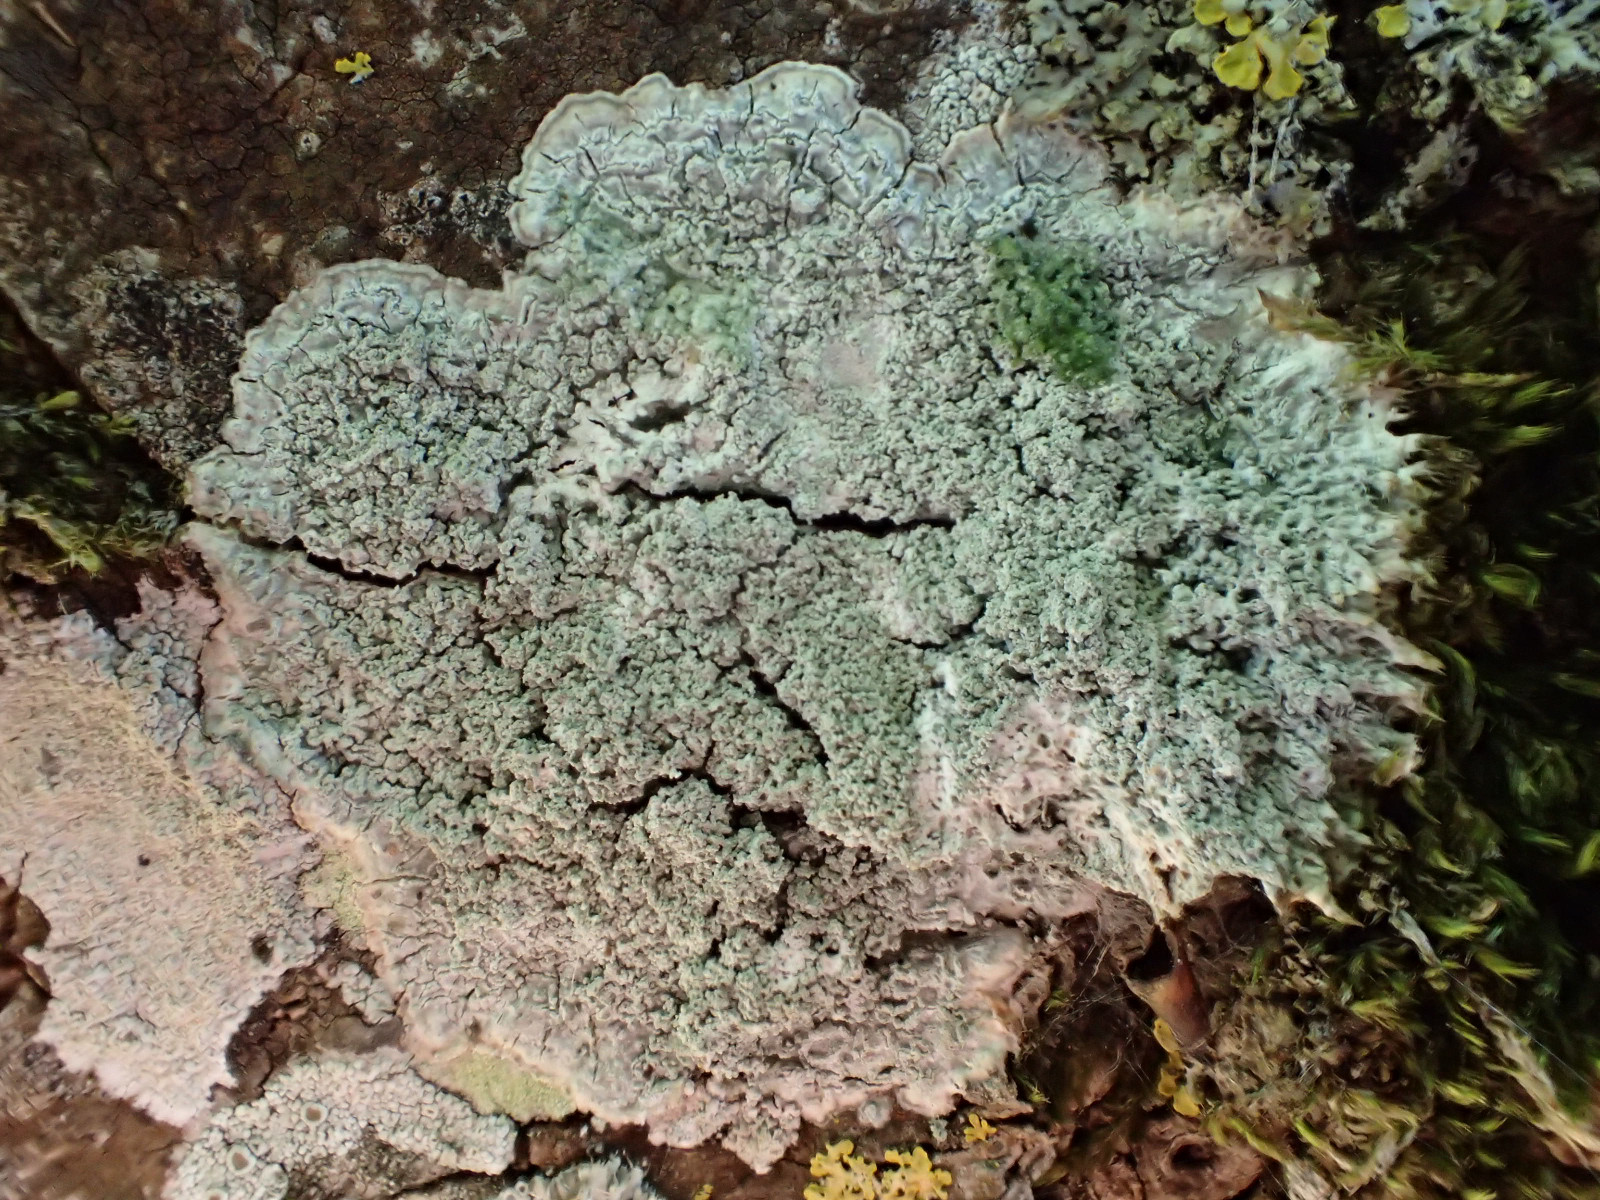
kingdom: Fungi
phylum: Ascomycota
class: Lecanoromycetes
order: Pertusariales
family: Pertusariaceae
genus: Lepra
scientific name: Lepra albescens
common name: hvidmelet prikvortelav
